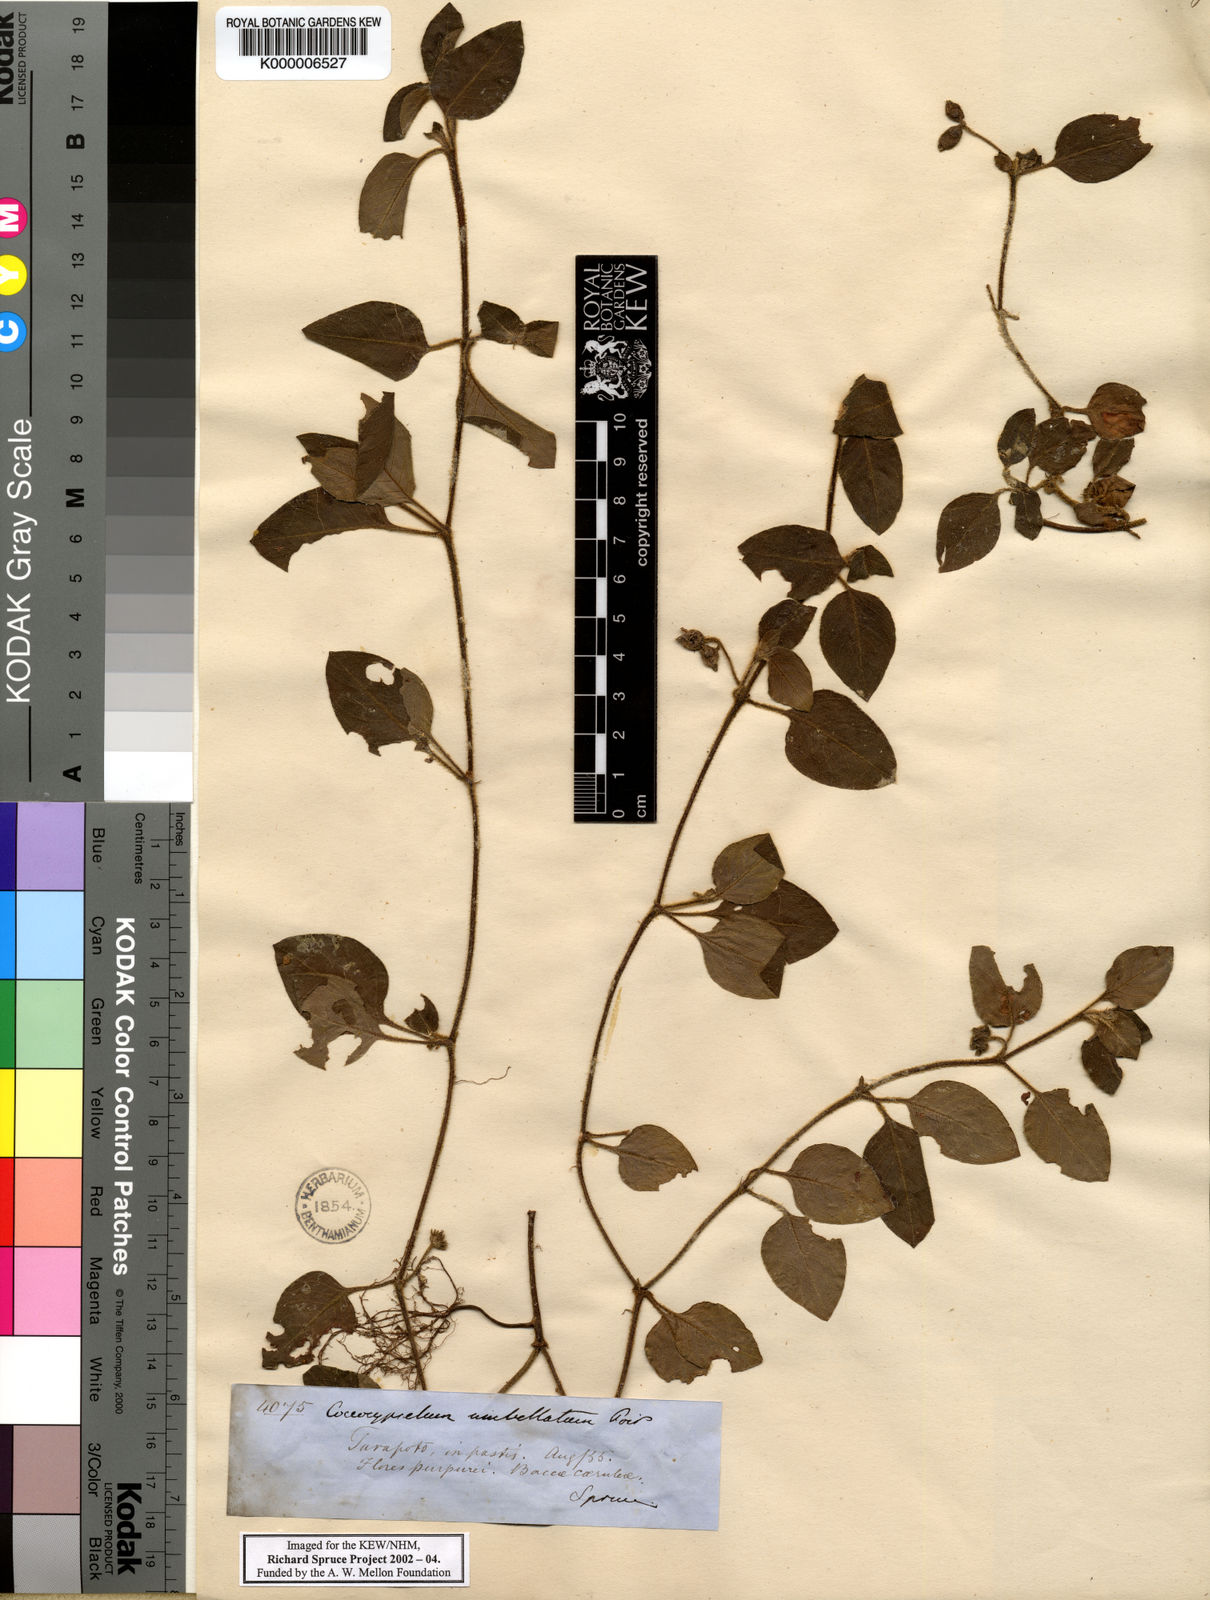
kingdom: Plantae
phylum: Tracheophyta
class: Magnoliopsida
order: Gentianales
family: Rubiaceae
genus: Coccocypselum
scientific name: Coccocypselum condalia
